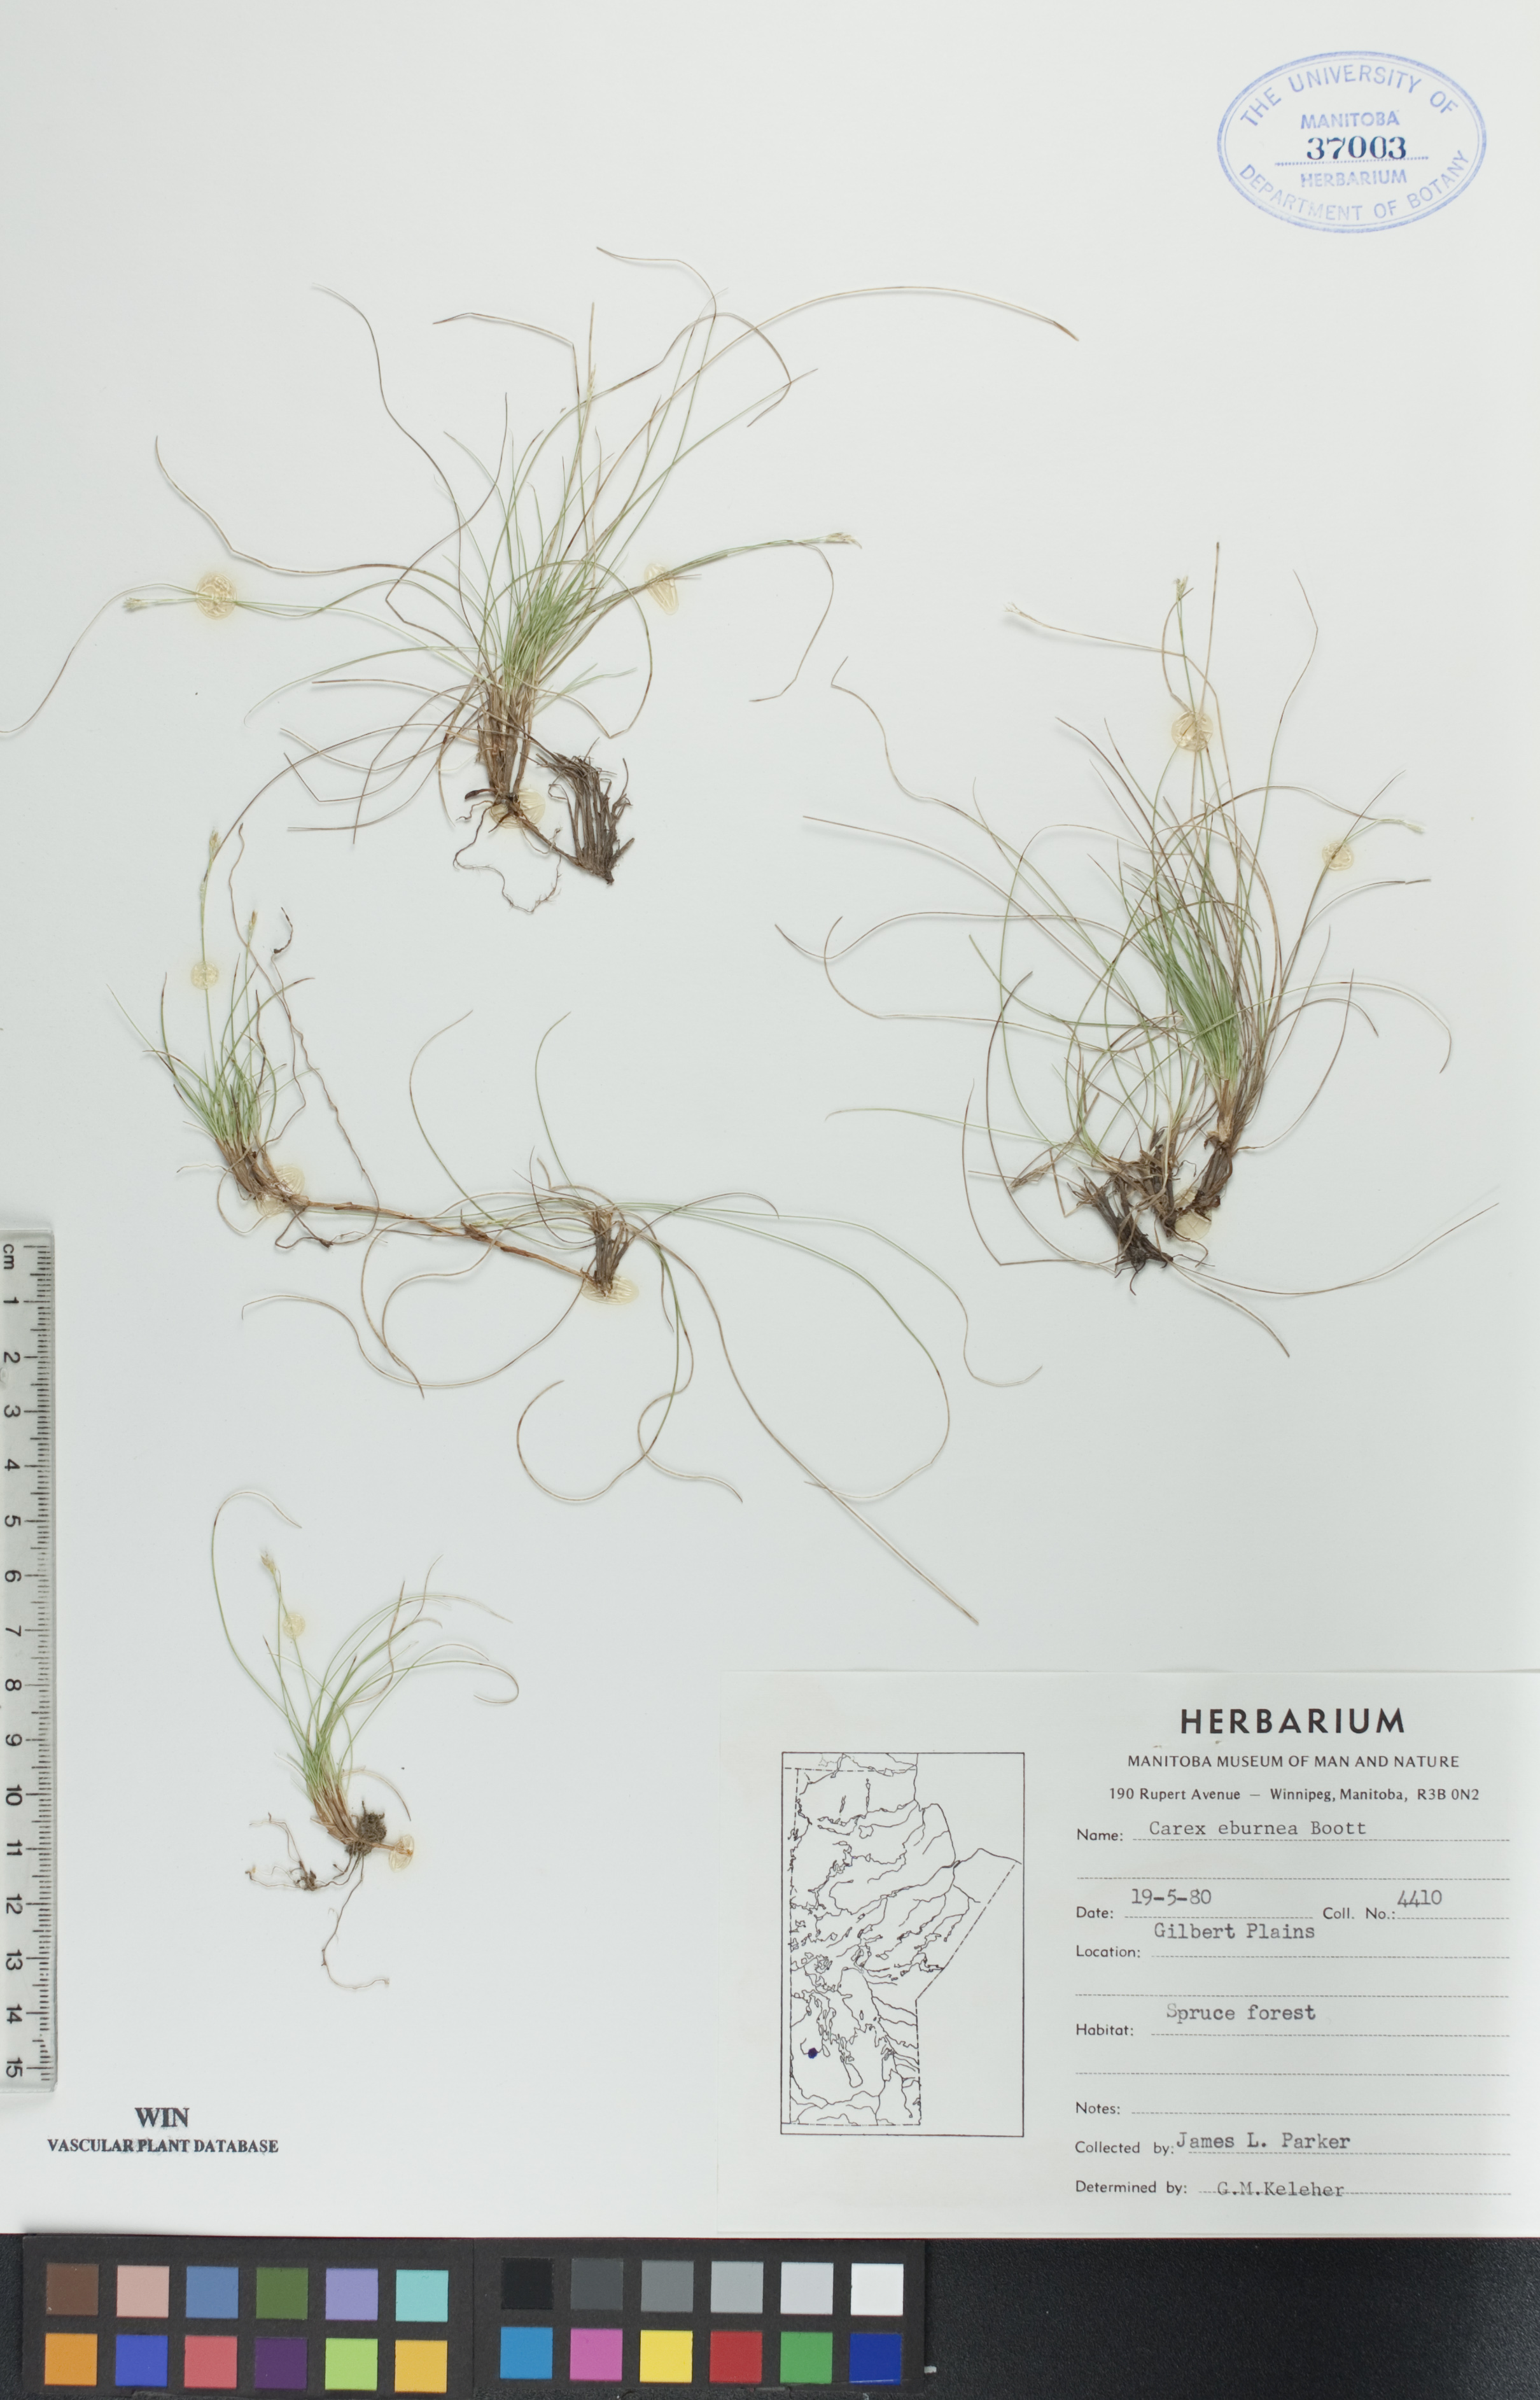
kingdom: Plantae
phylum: Tracheophyta
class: Liliopsida
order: Poales
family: Cyperaceae
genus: Carex
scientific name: Carex eburnea
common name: Bristle-leaved sedge
